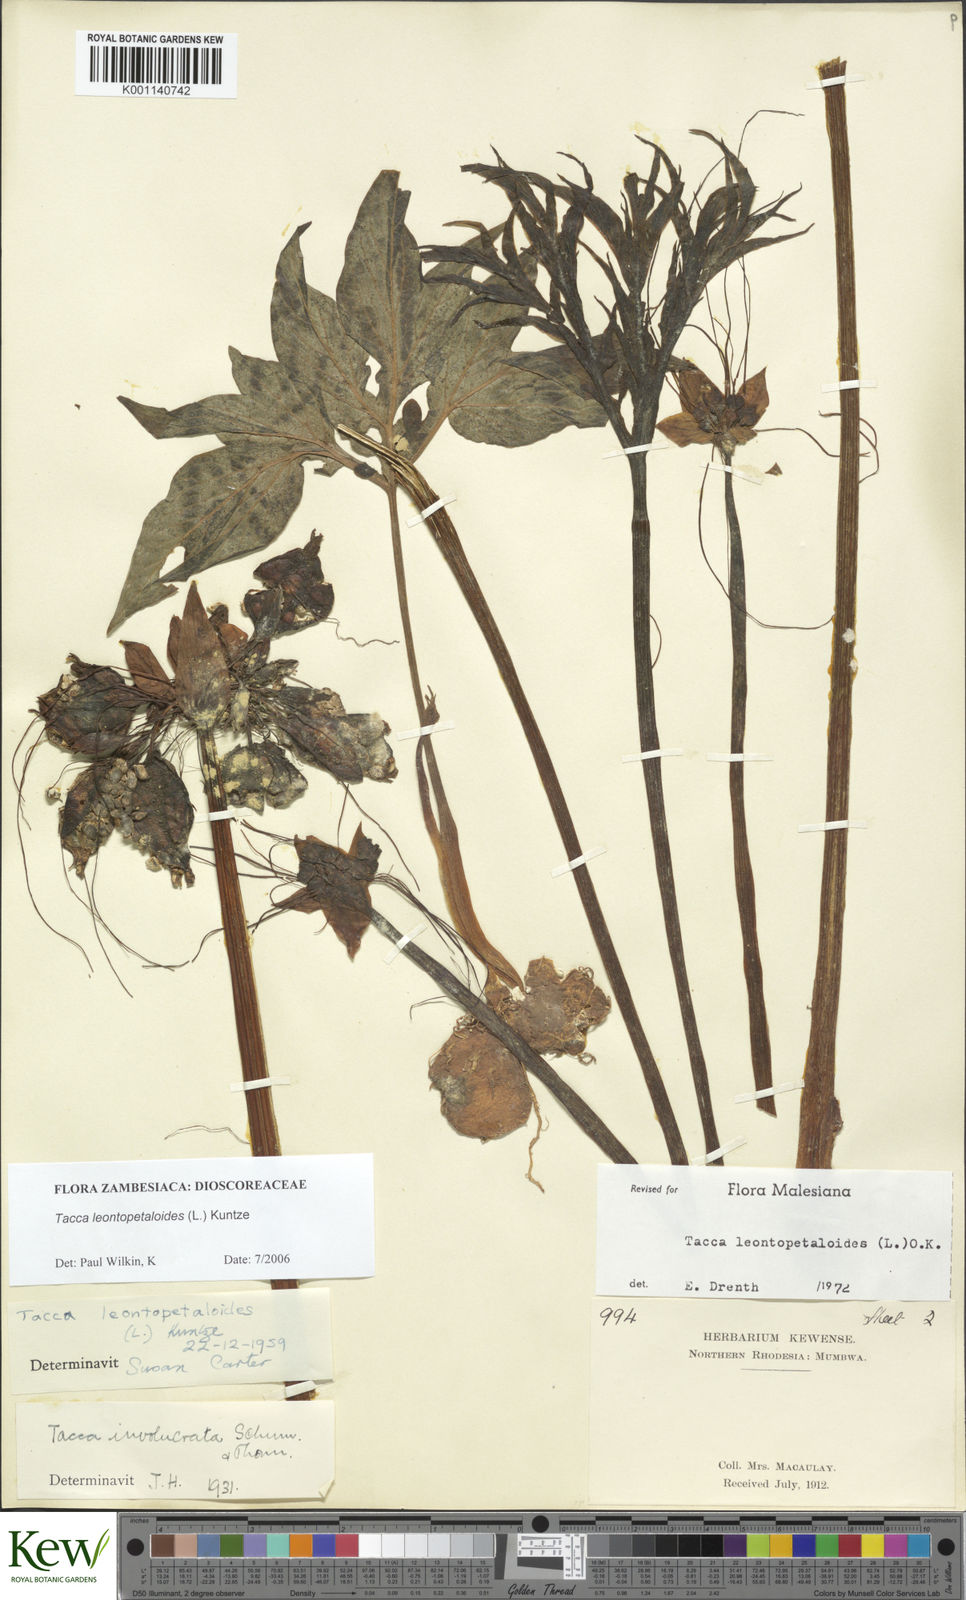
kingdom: Plantae
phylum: Tracheophyta
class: Liliopsida
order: Dioscoreales
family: Dioscoreaceae
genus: Tacca
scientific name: Tacca leontopetaloides
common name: Arrowroot
